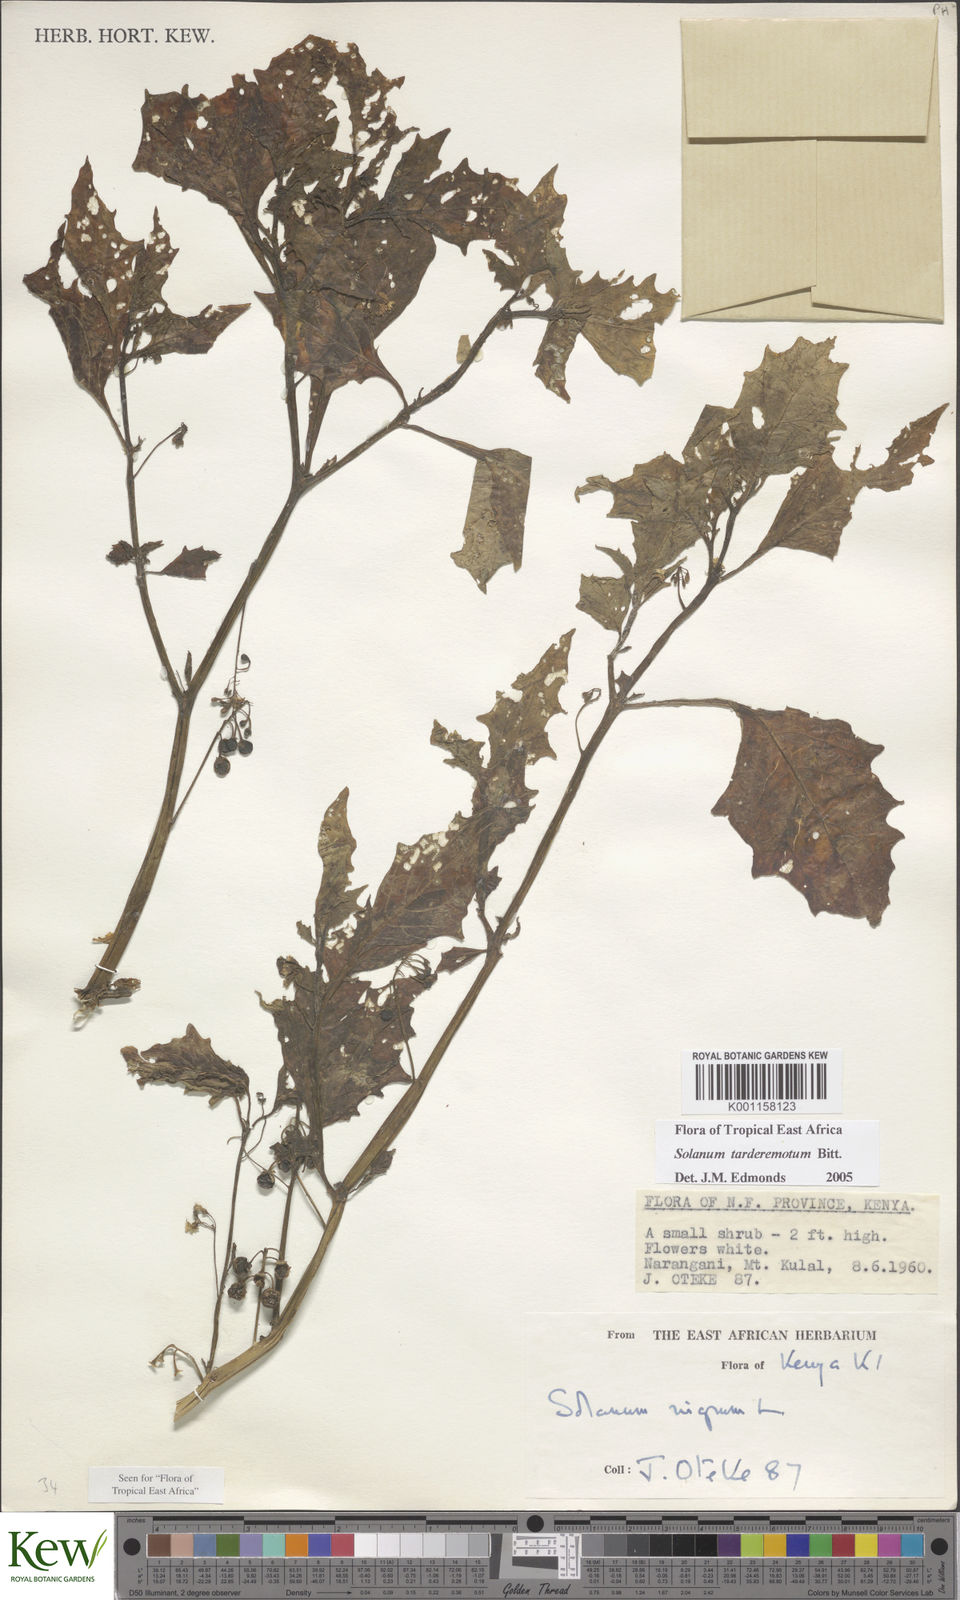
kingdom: Plantae
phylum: Tracheophyta
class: Magnoliopsida
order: Solanales
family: Solanaceae
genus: Solanum
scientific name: Solanum tarderemotum
